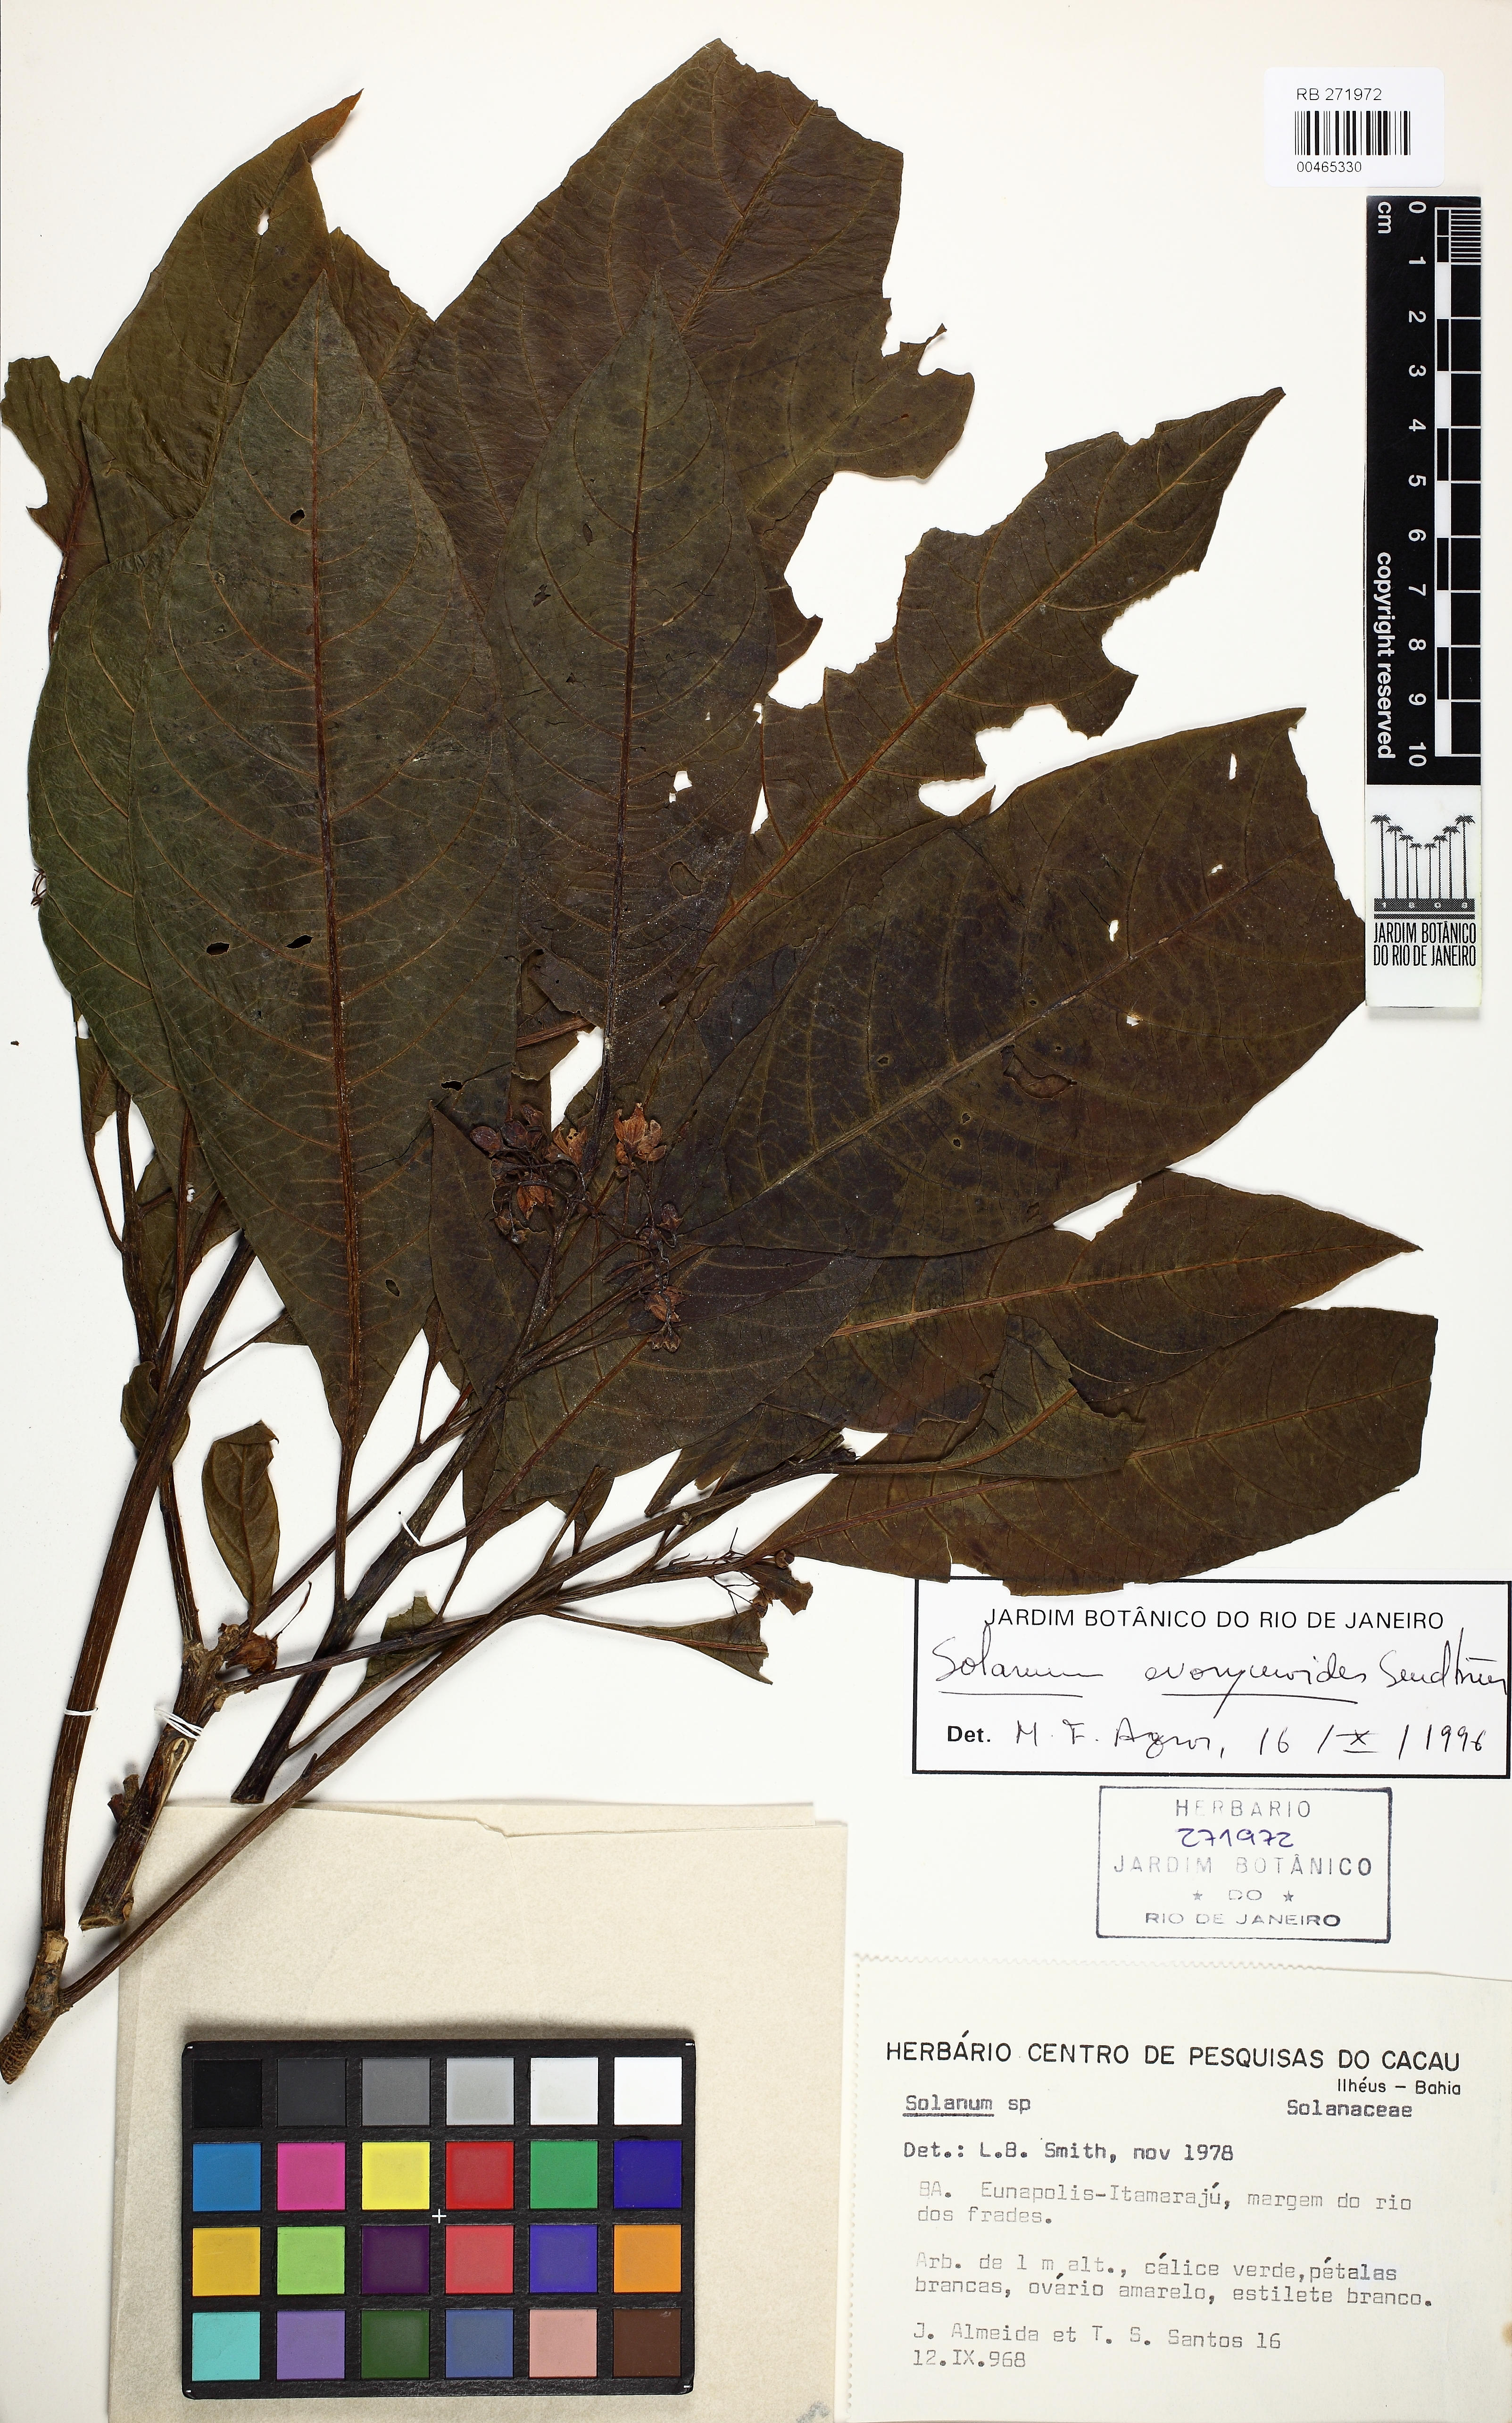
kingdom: Plantae
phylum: Tracheophyta
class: Magnoliopsida
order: Solanales
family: Solanaceae
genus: Solanum
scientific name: Solanum evonymoides
